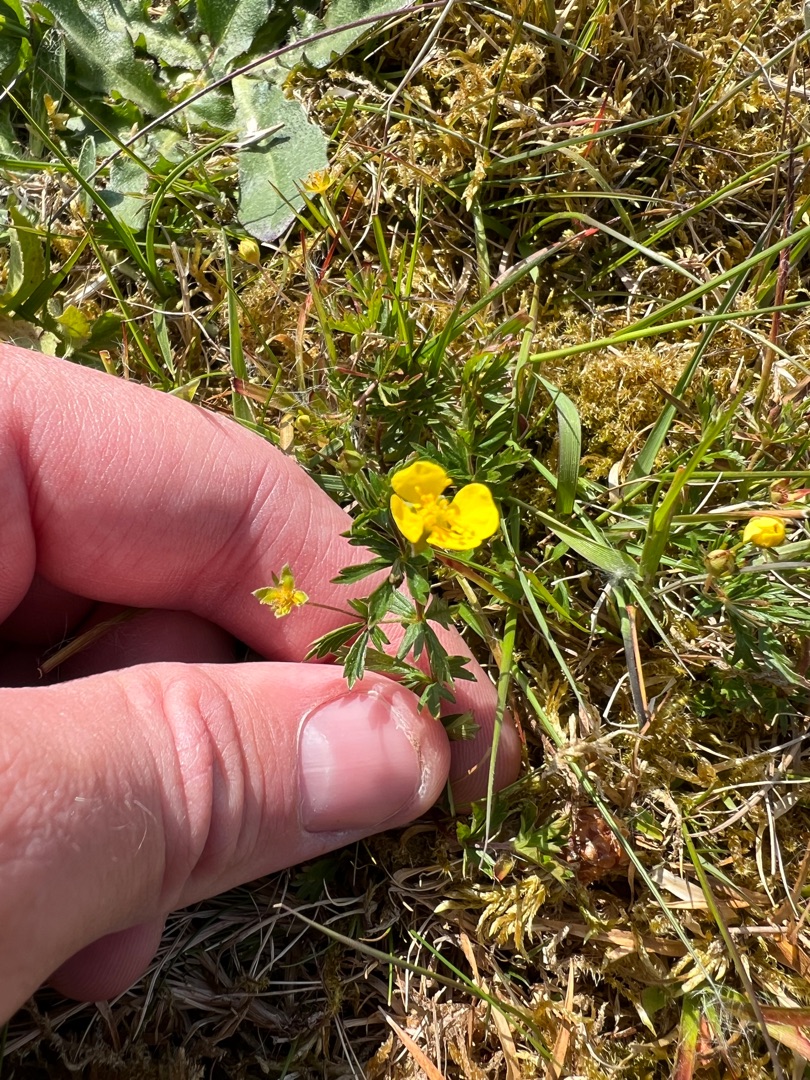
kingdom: Plantae
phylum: Tracheophyta
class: Magnoliopsida
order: Rosales
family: Rosaceae
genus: Potentilla
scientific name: Potentilla erecta
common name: Tormentil
